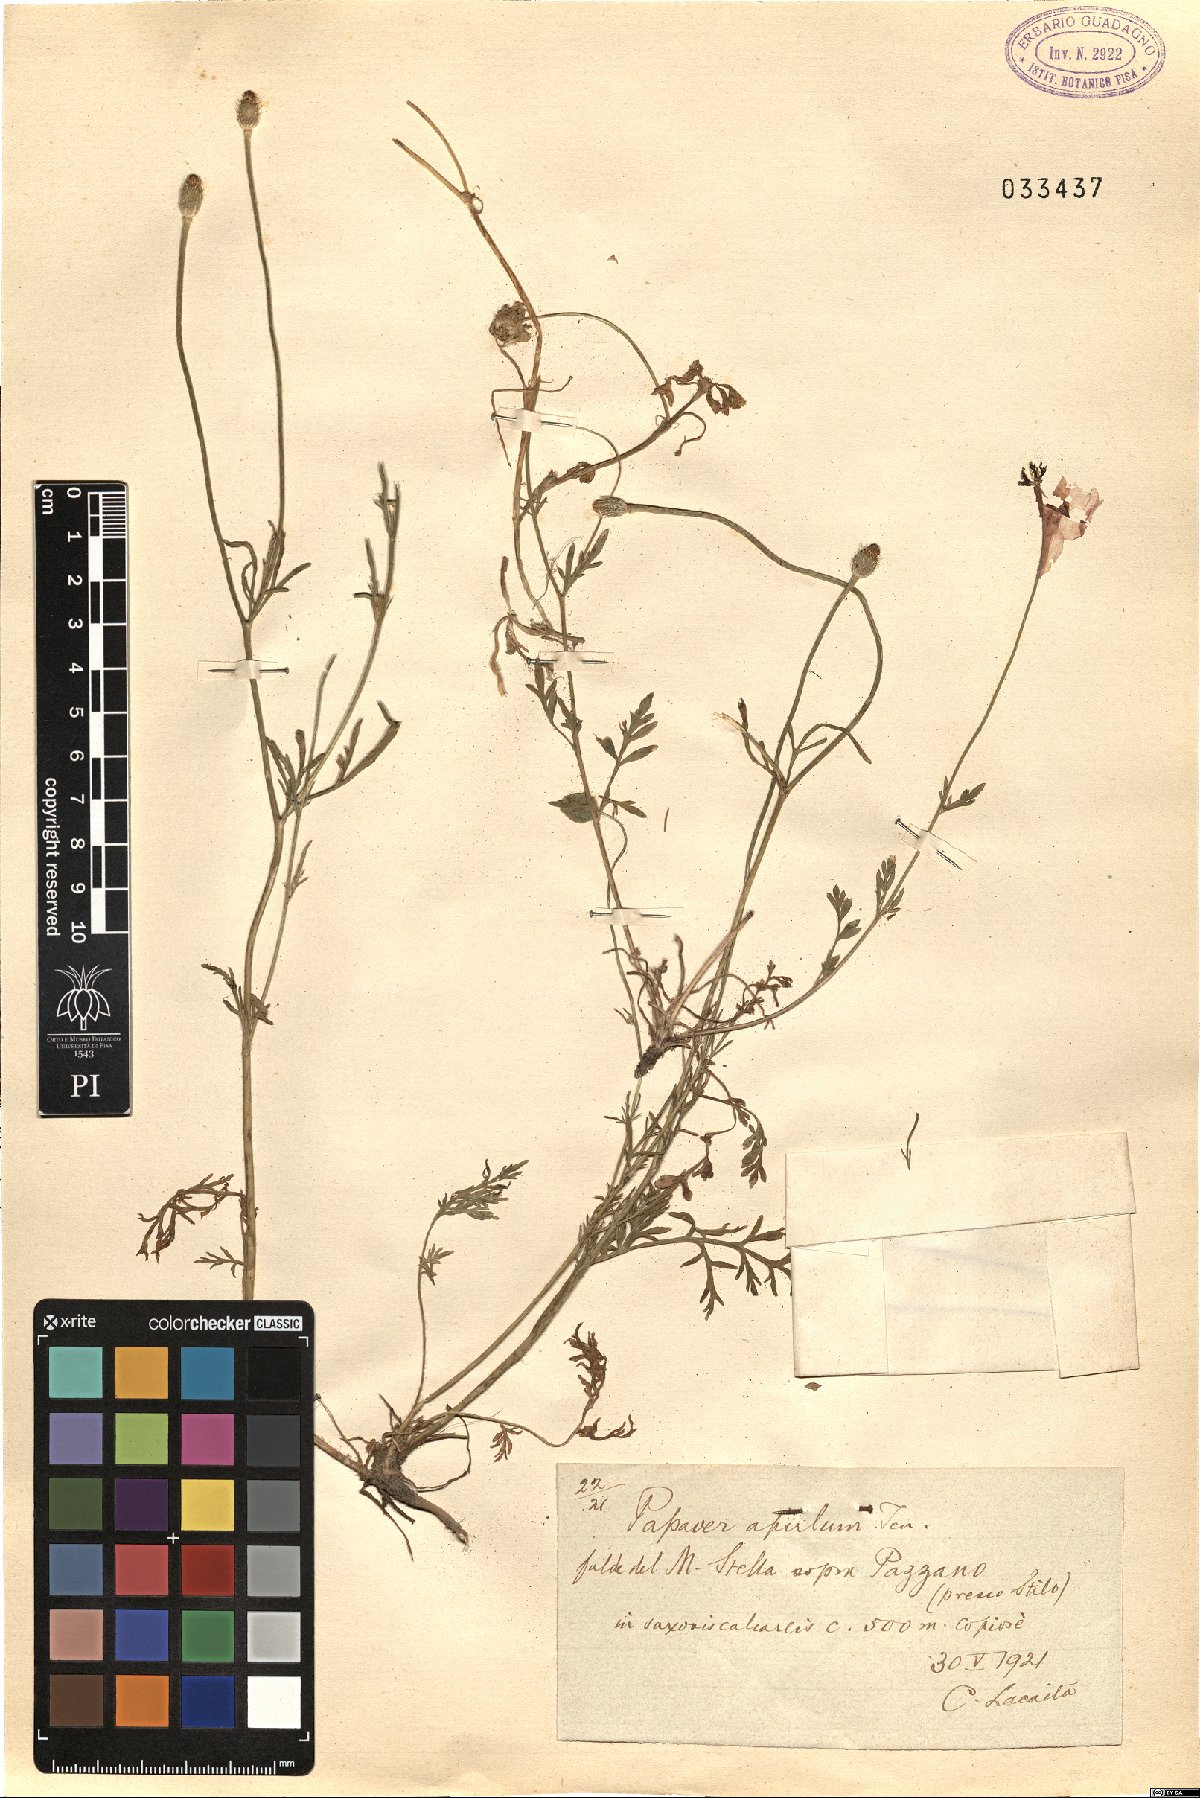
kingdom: Plantae
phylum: Tracheophyta
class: Magnoliopsida
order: Ranunculales
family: Papaveraceae
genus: Roemeria
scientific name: Roemeria apula
